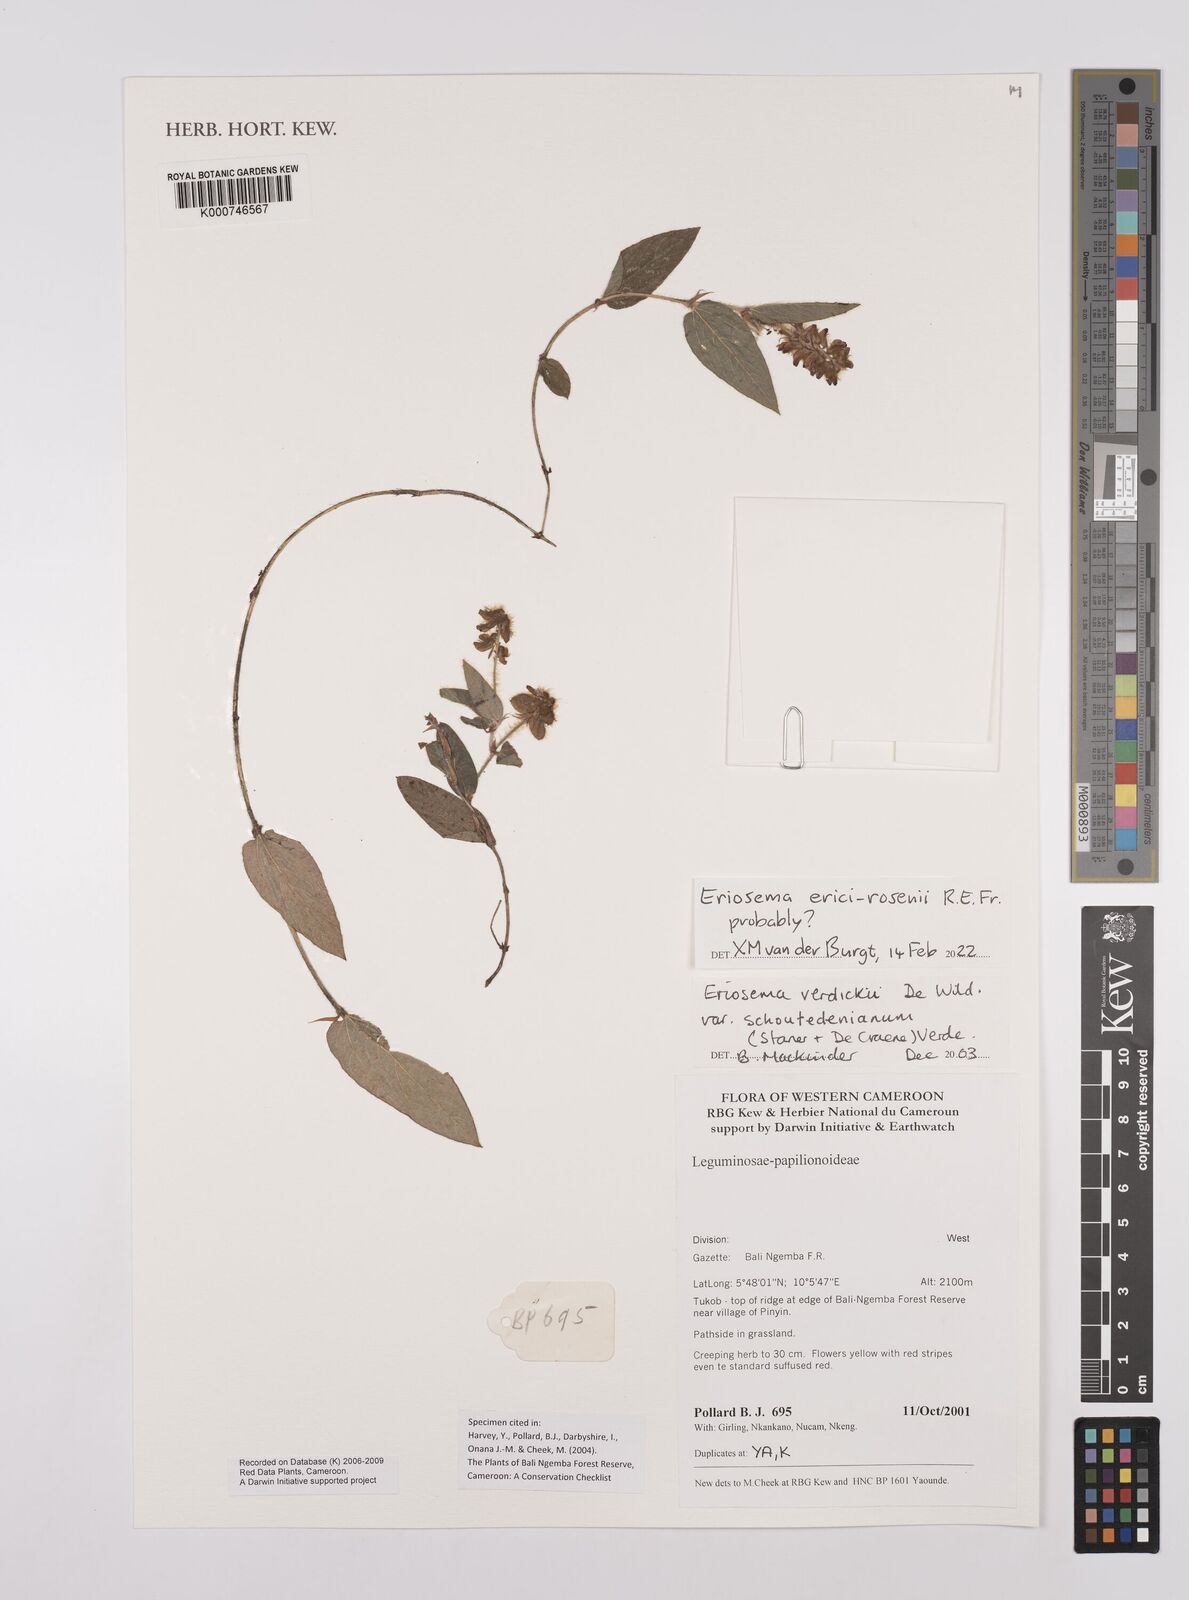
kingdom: Plantae
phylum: Tracheophyta
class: Magnoliopsida
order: Fabales
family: Fabaceae
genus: Eriosema
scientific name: Eriosema verdickii
